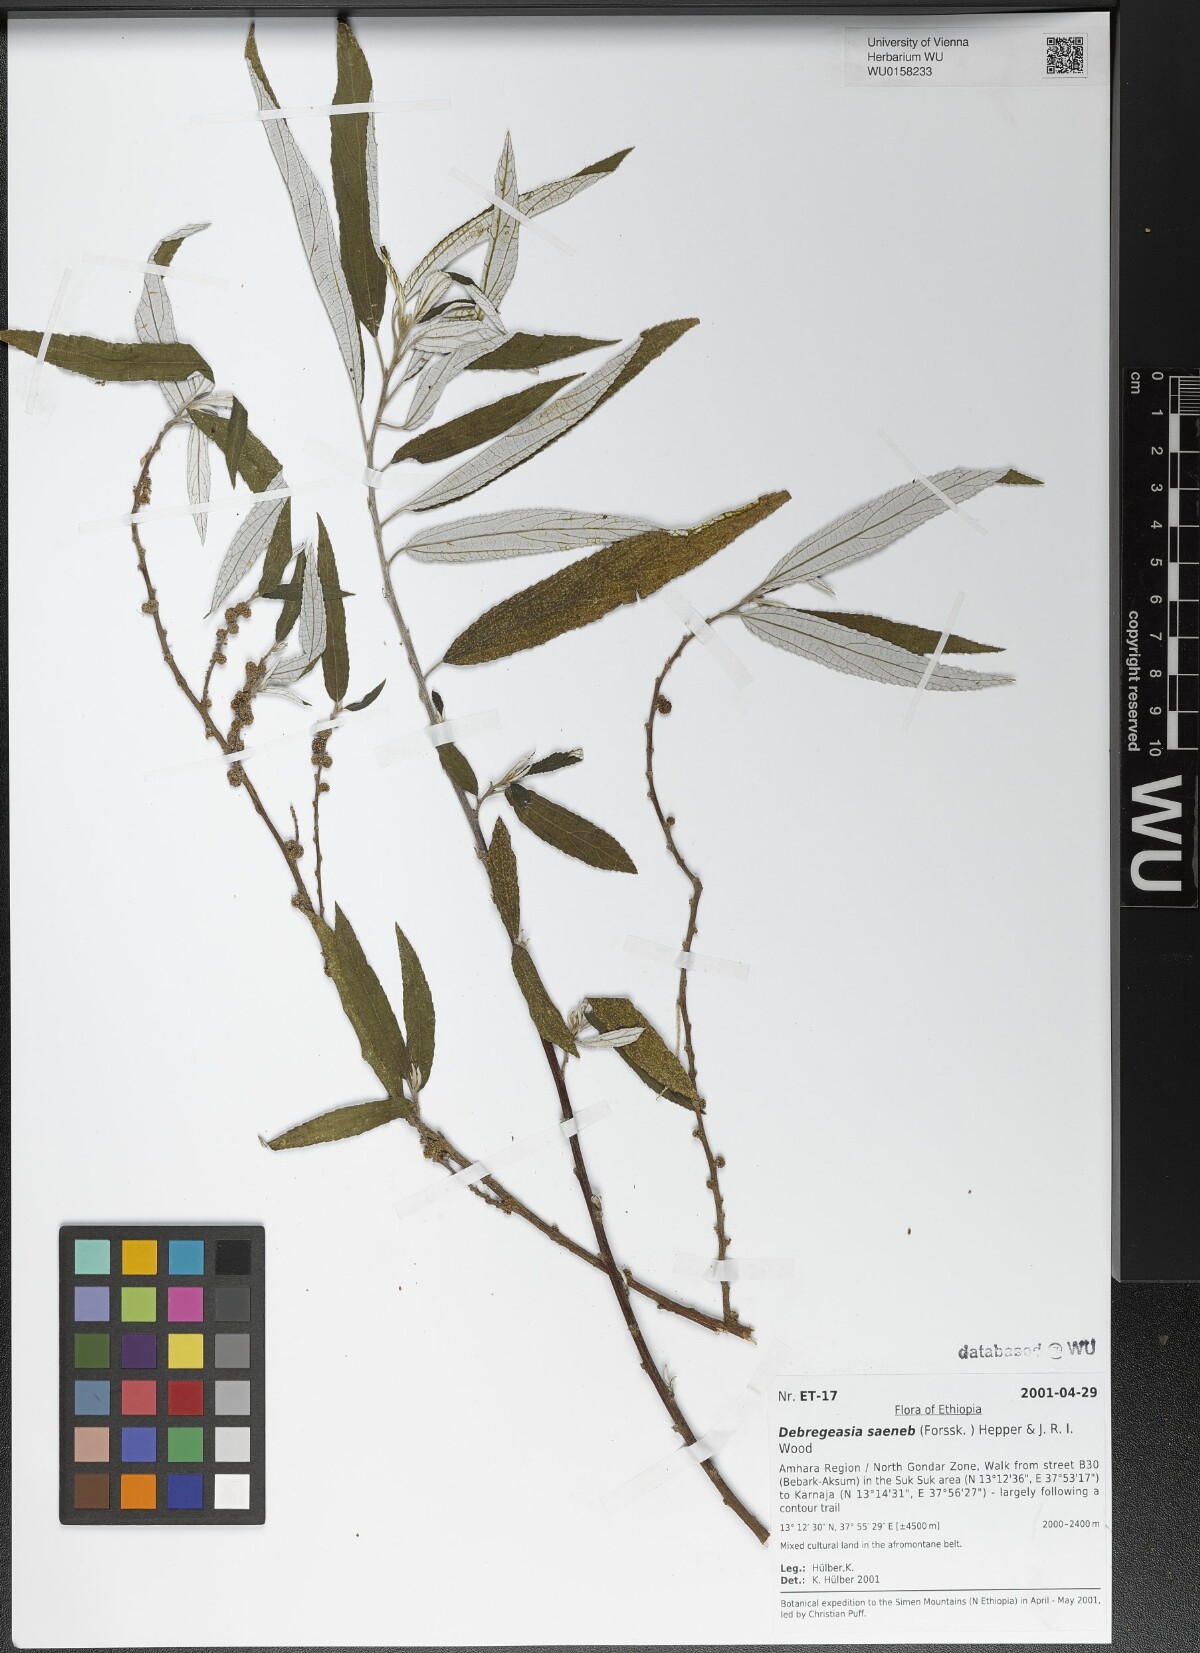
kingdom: Plantae
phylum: Tracheophyta
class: Magnoliopsida
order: Rosales
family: Urticaceae
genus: Debregeasia
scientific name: Debregeasia saeneb
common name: Himalayan wild rhea
